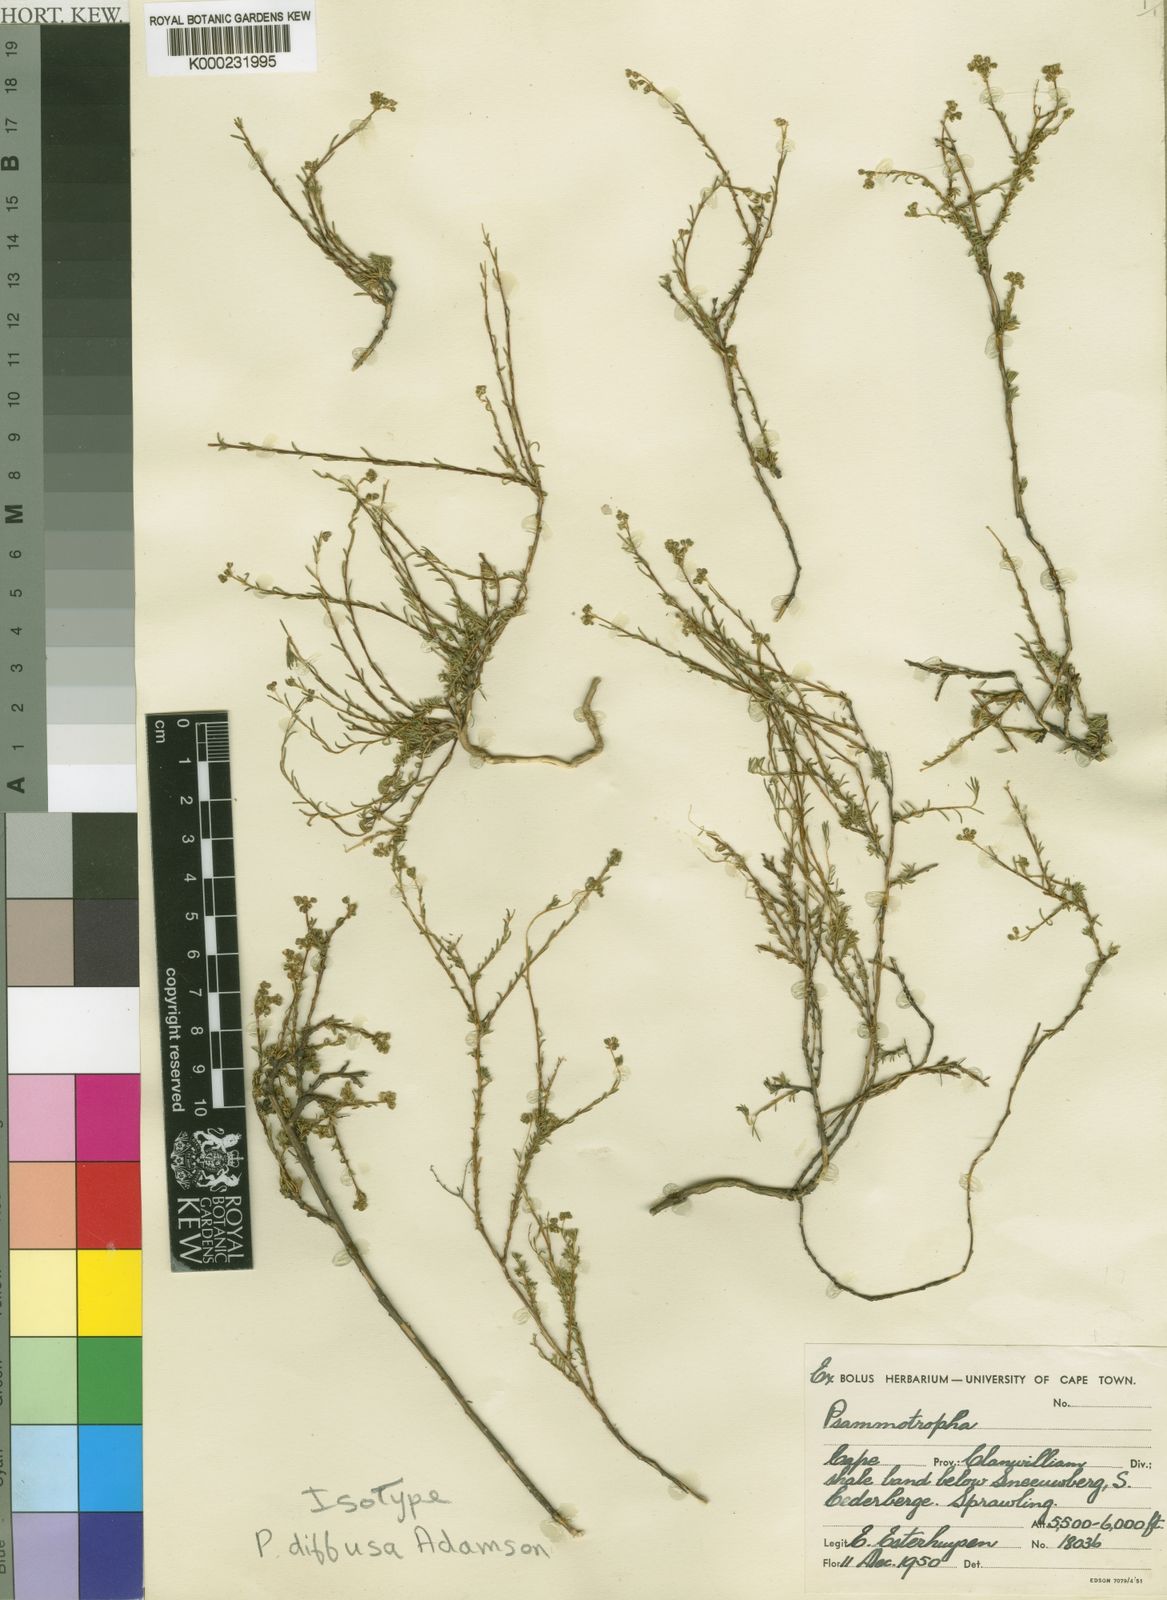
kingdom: Plantae
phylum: Tracheophyta
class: Magnoliopsida
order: Caryophyllales
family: Molluginaceae
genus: Psammotropha
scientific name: Psammotropha diffusa
